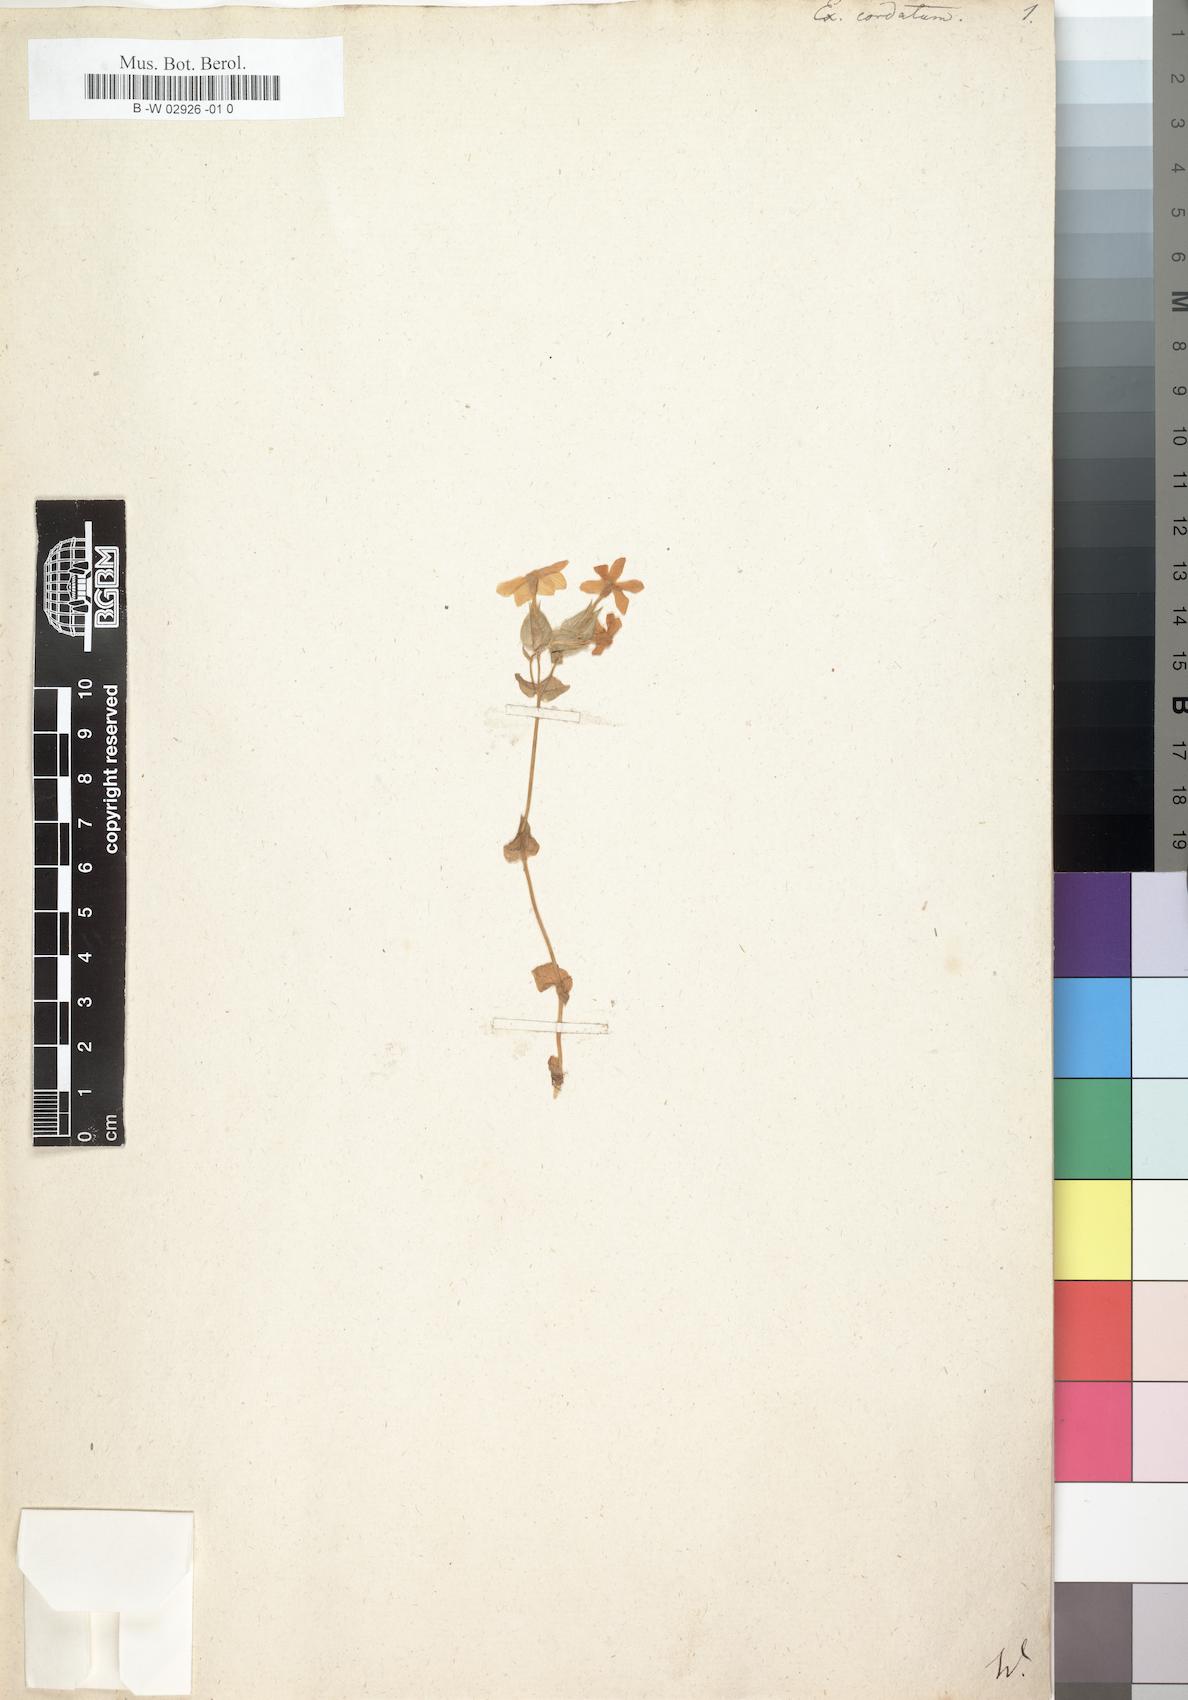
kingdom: Plantae
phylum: Tracheophyta
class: Magnoliopsida
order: Gentianales
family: Gentianaceae
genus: Sebaea
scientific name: Sebaea exacoides
